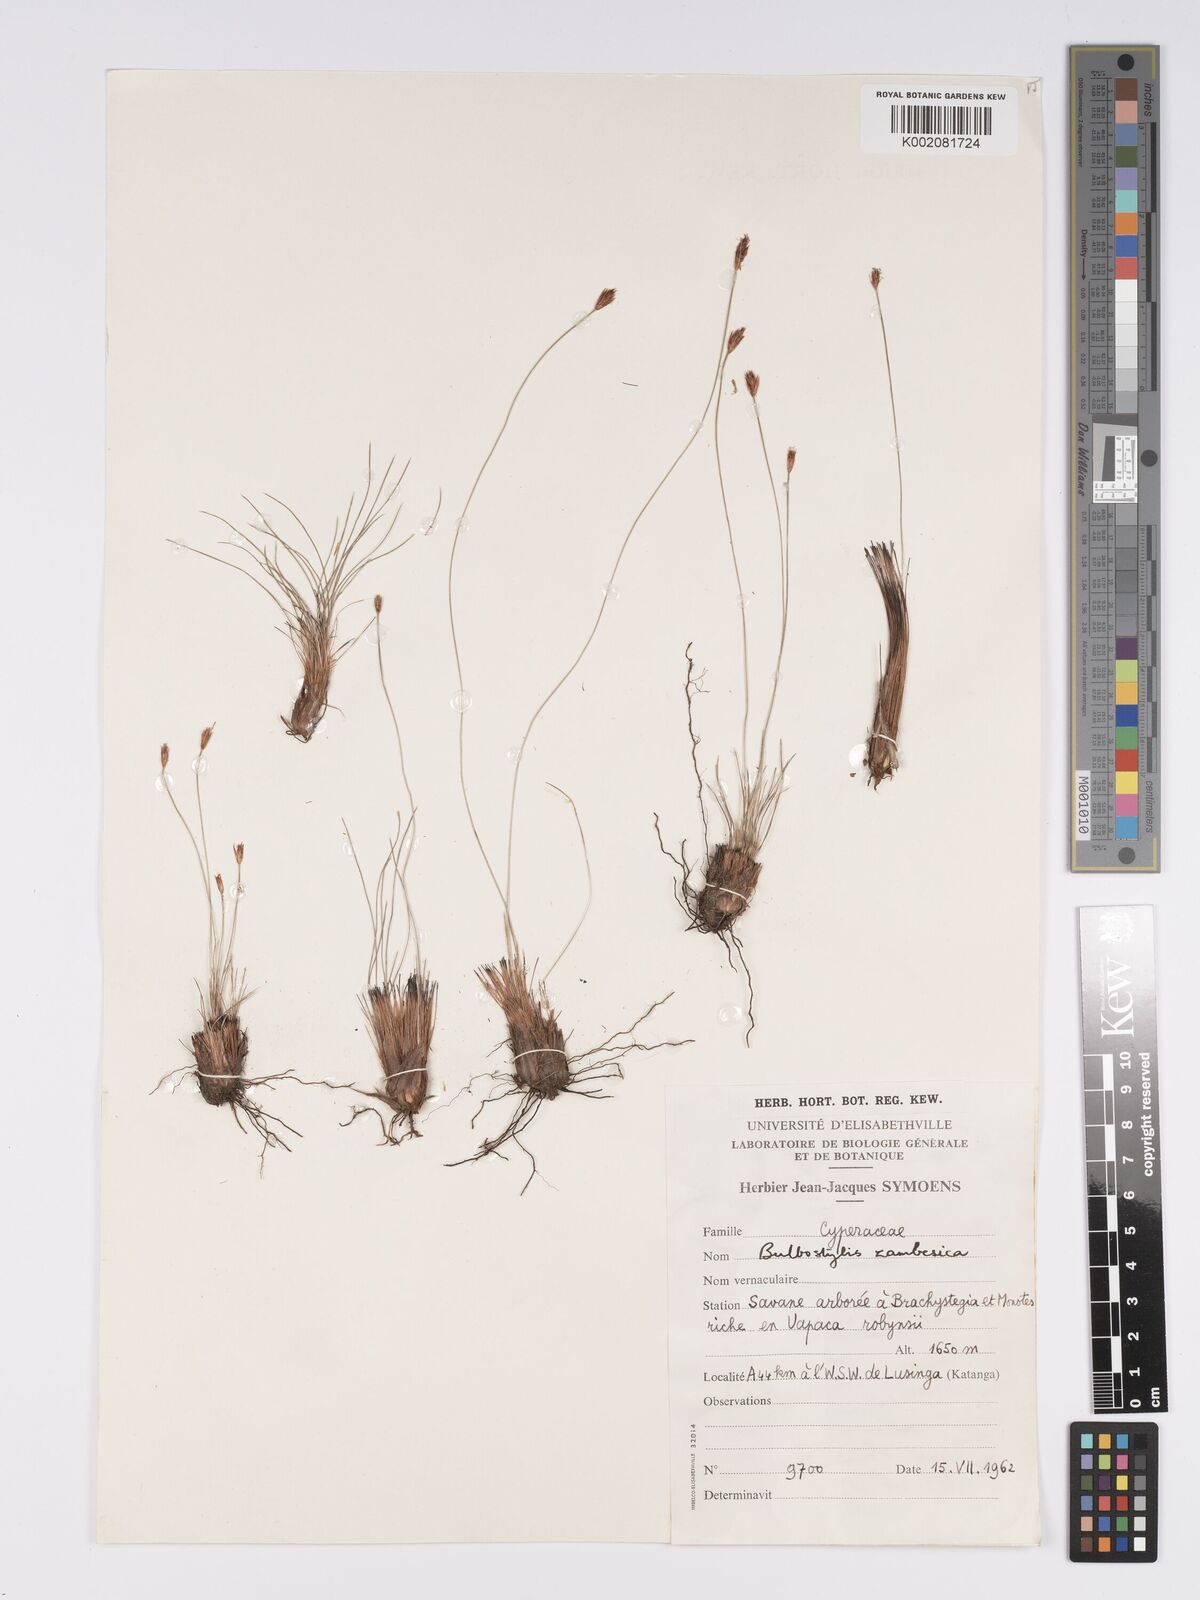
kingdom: Plantae
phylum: Tracheophyta
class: Liliopsida
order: Poales
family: Cyperaceae
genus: Bulbostylis
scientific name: Bulbostylis macra
